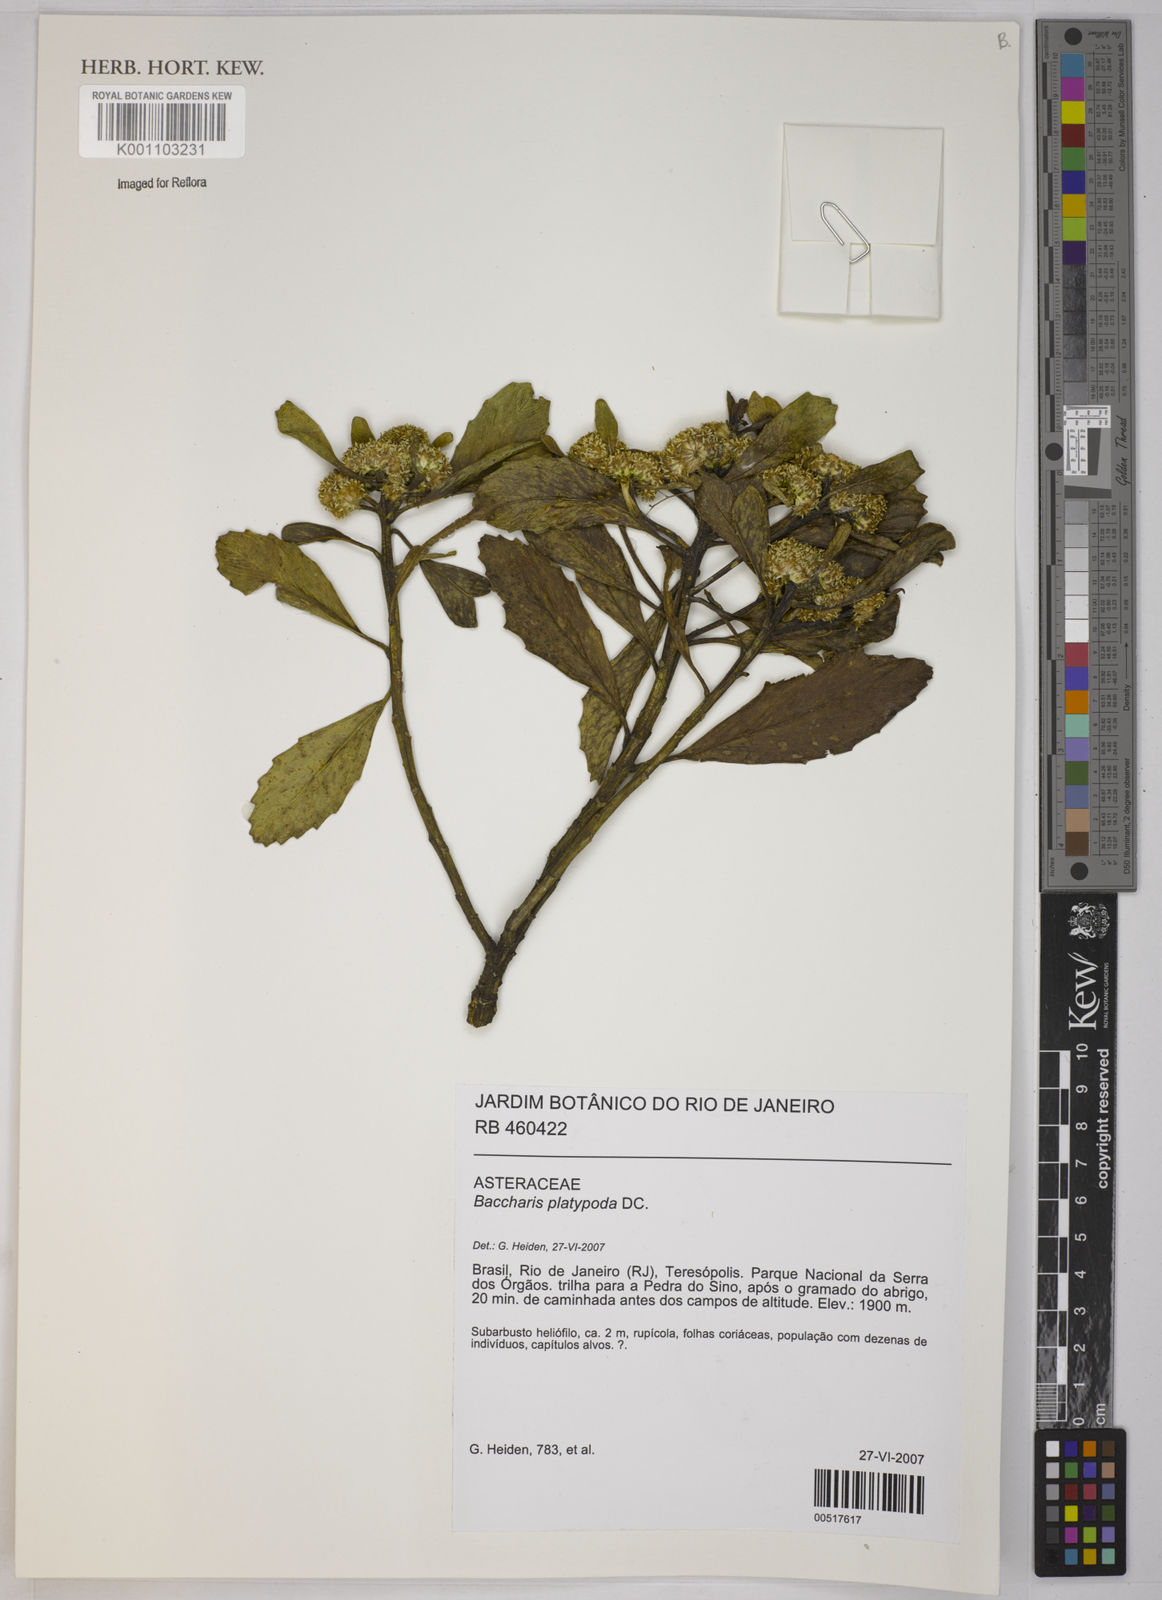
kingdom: Plantae
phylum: Tracheophyta
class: Magnoliopsida
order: Asterales
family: Asteraceae
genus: Baccharis
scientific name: Baccharis platypoda
